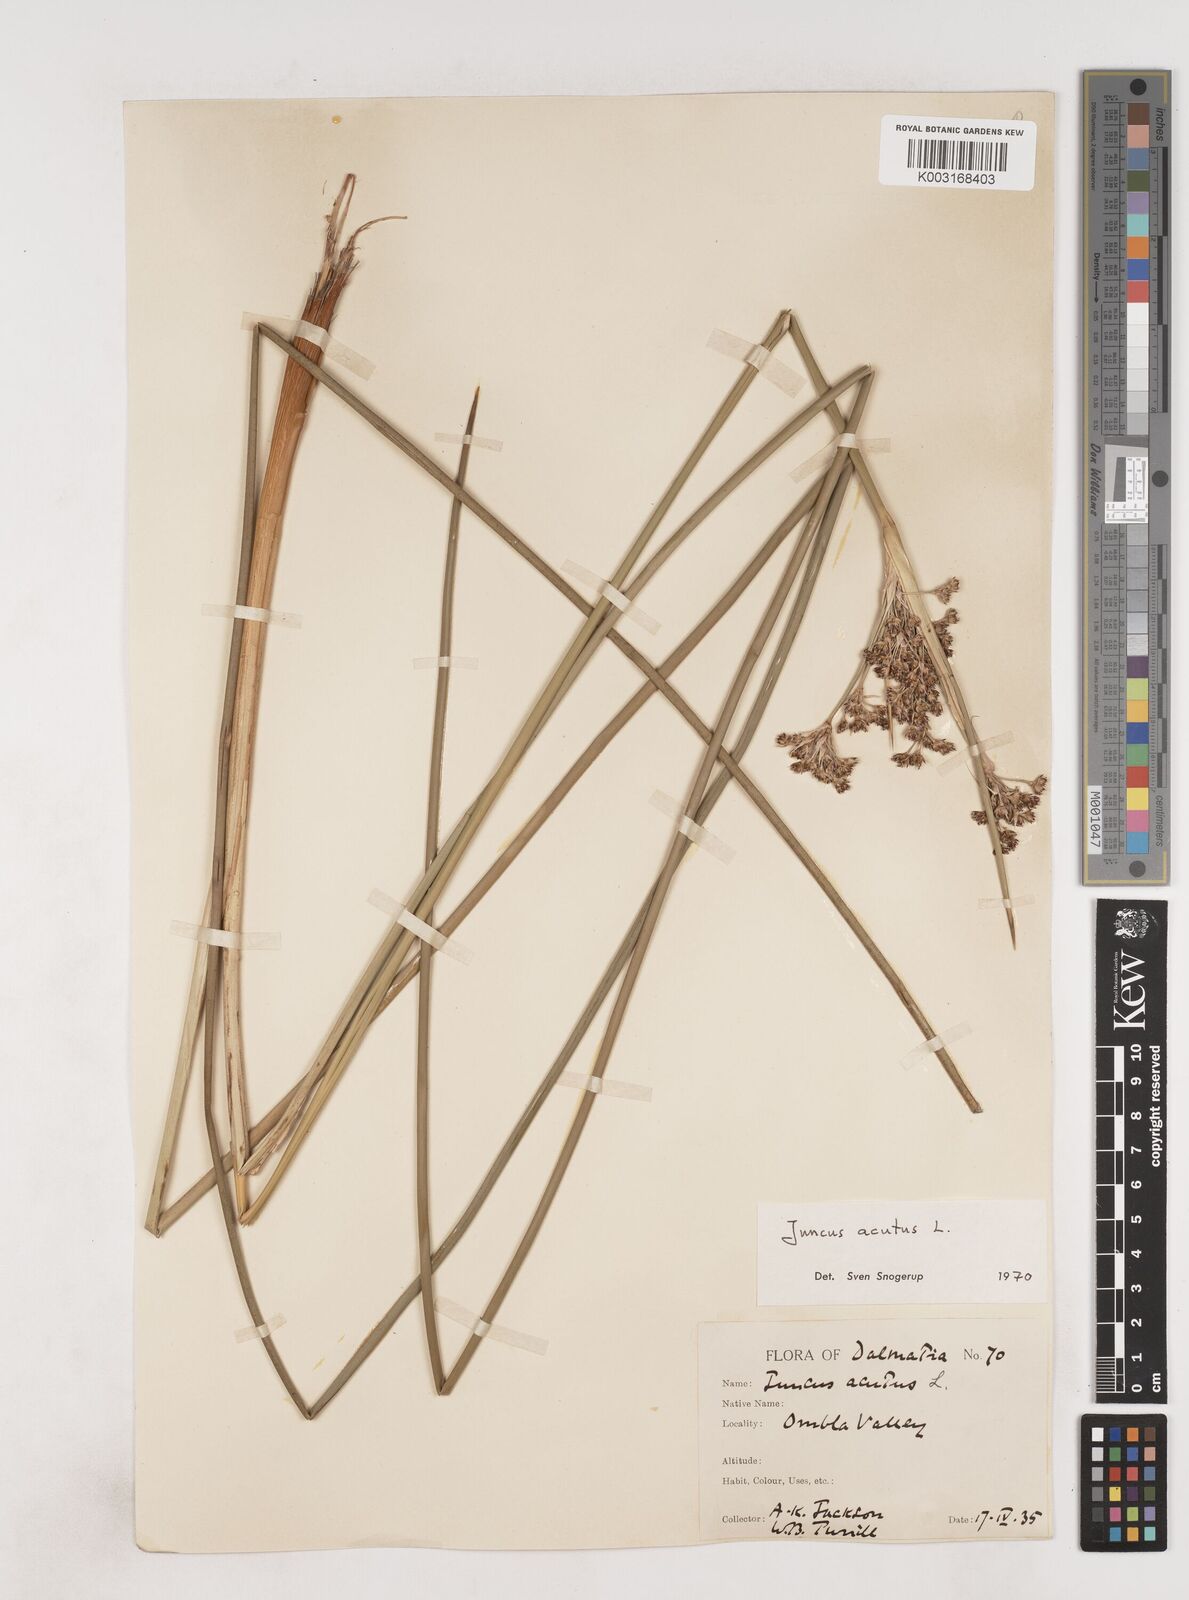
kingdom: Plantae
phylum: Tracheophyta
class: Liliopsida
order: Poales
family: Juncaceae
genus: Juncus
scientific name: Juncus acutus
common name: Sharp rush
